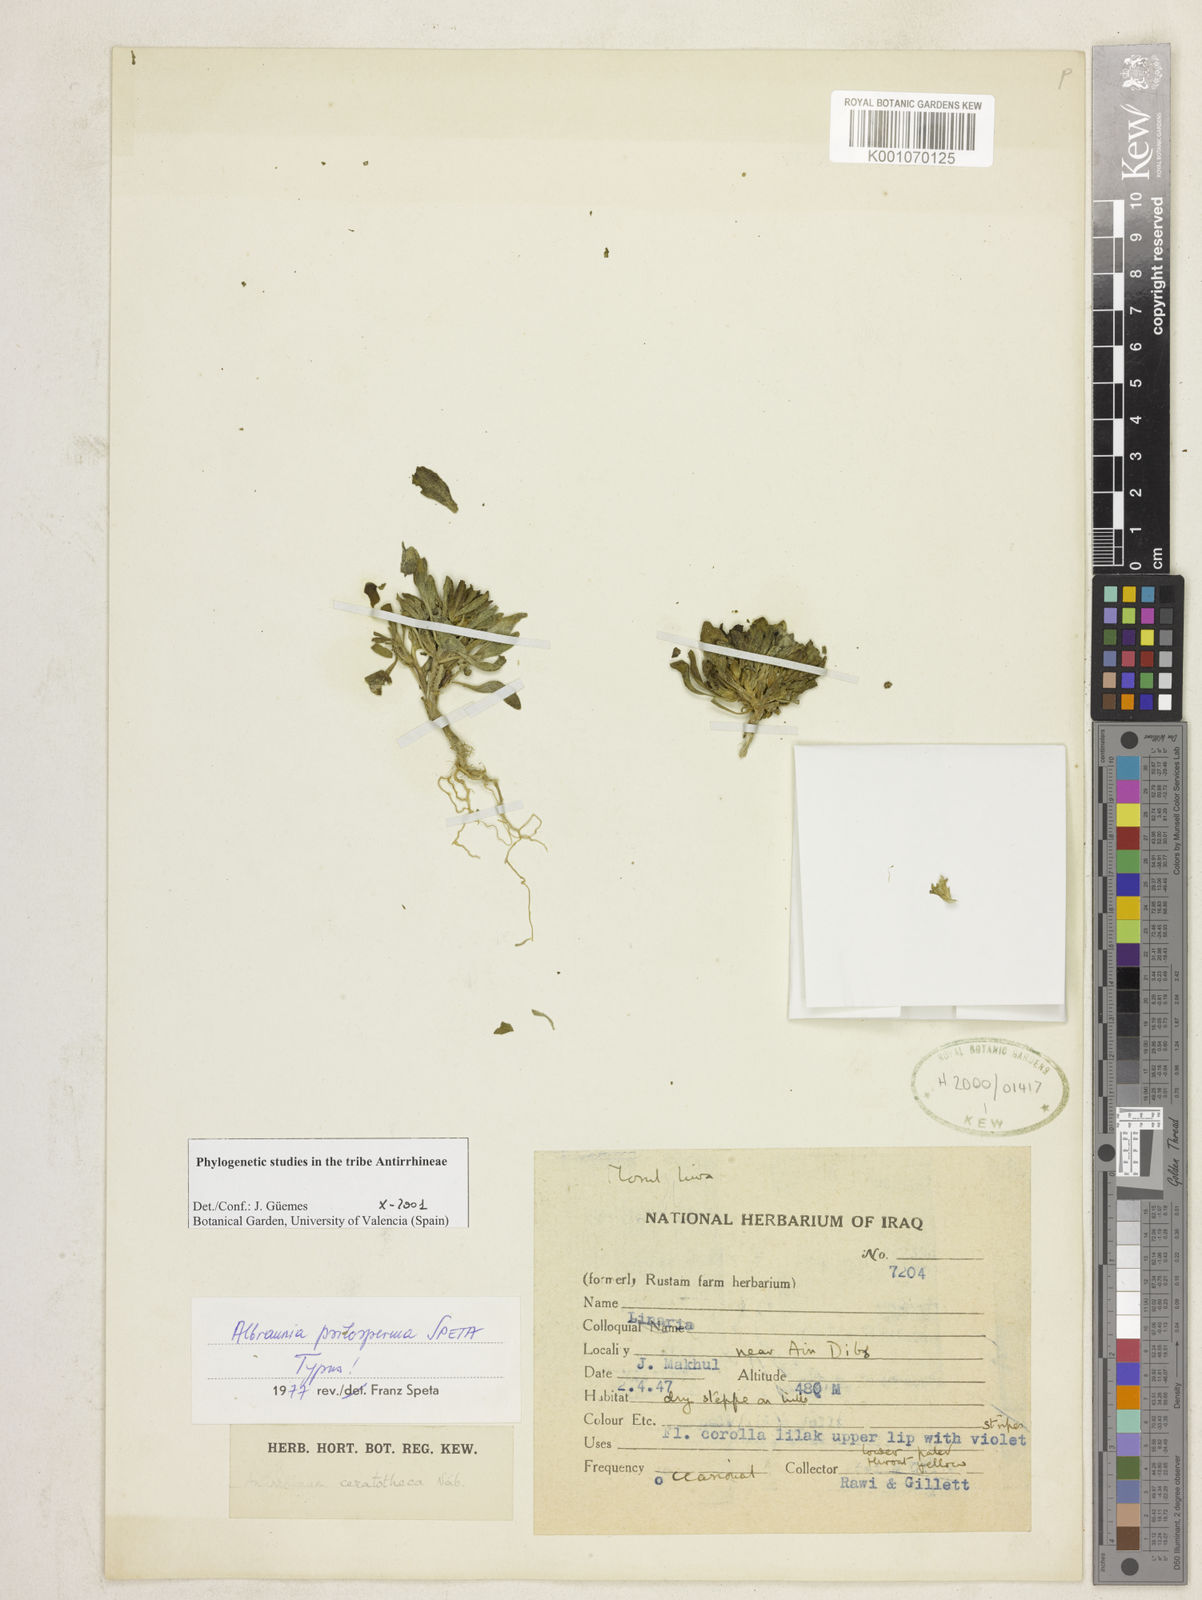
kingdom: Plantae
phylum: Tracheophyta
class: Magnoliopsida
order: Lamiales
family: Plantaginaceae
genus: Albraunia
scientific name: Albraunia psilosperma
